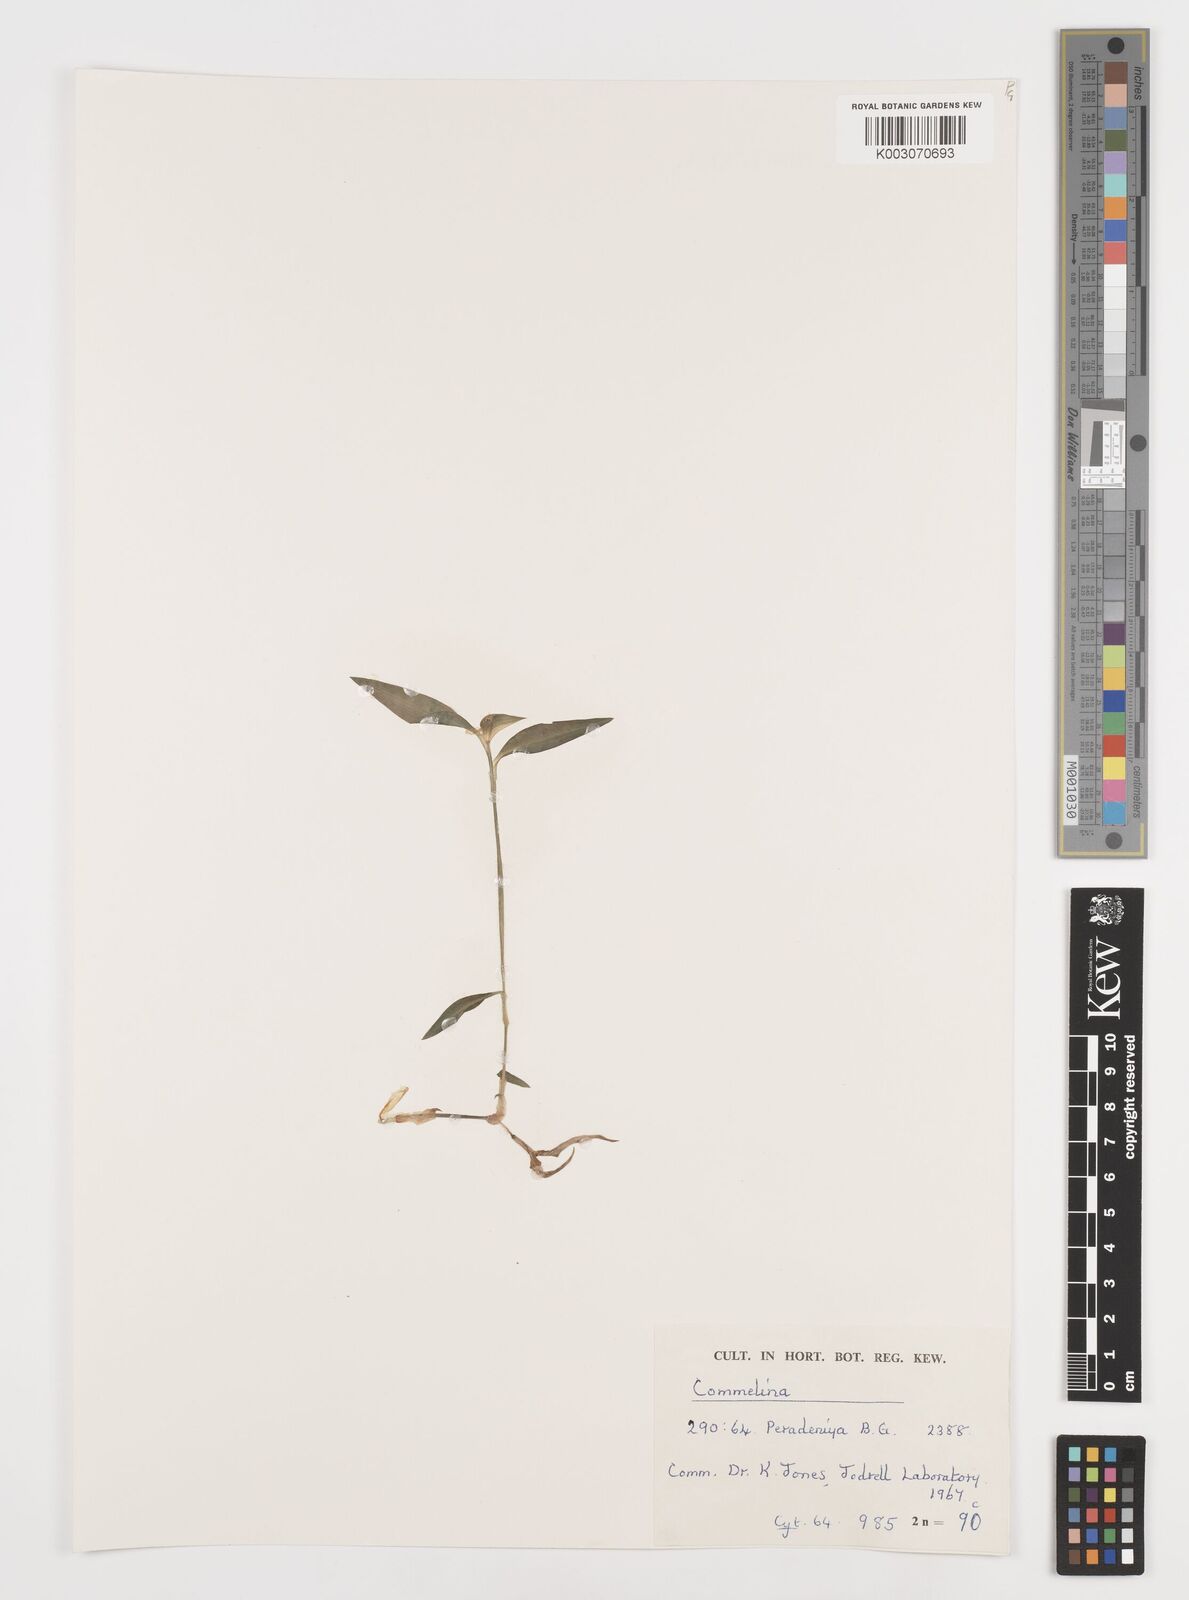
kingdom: Plantae
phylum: Tracheophyta
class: Liliopsida
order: Commelinales
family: Commelinaceae
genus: Commelina
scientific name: Commelina
